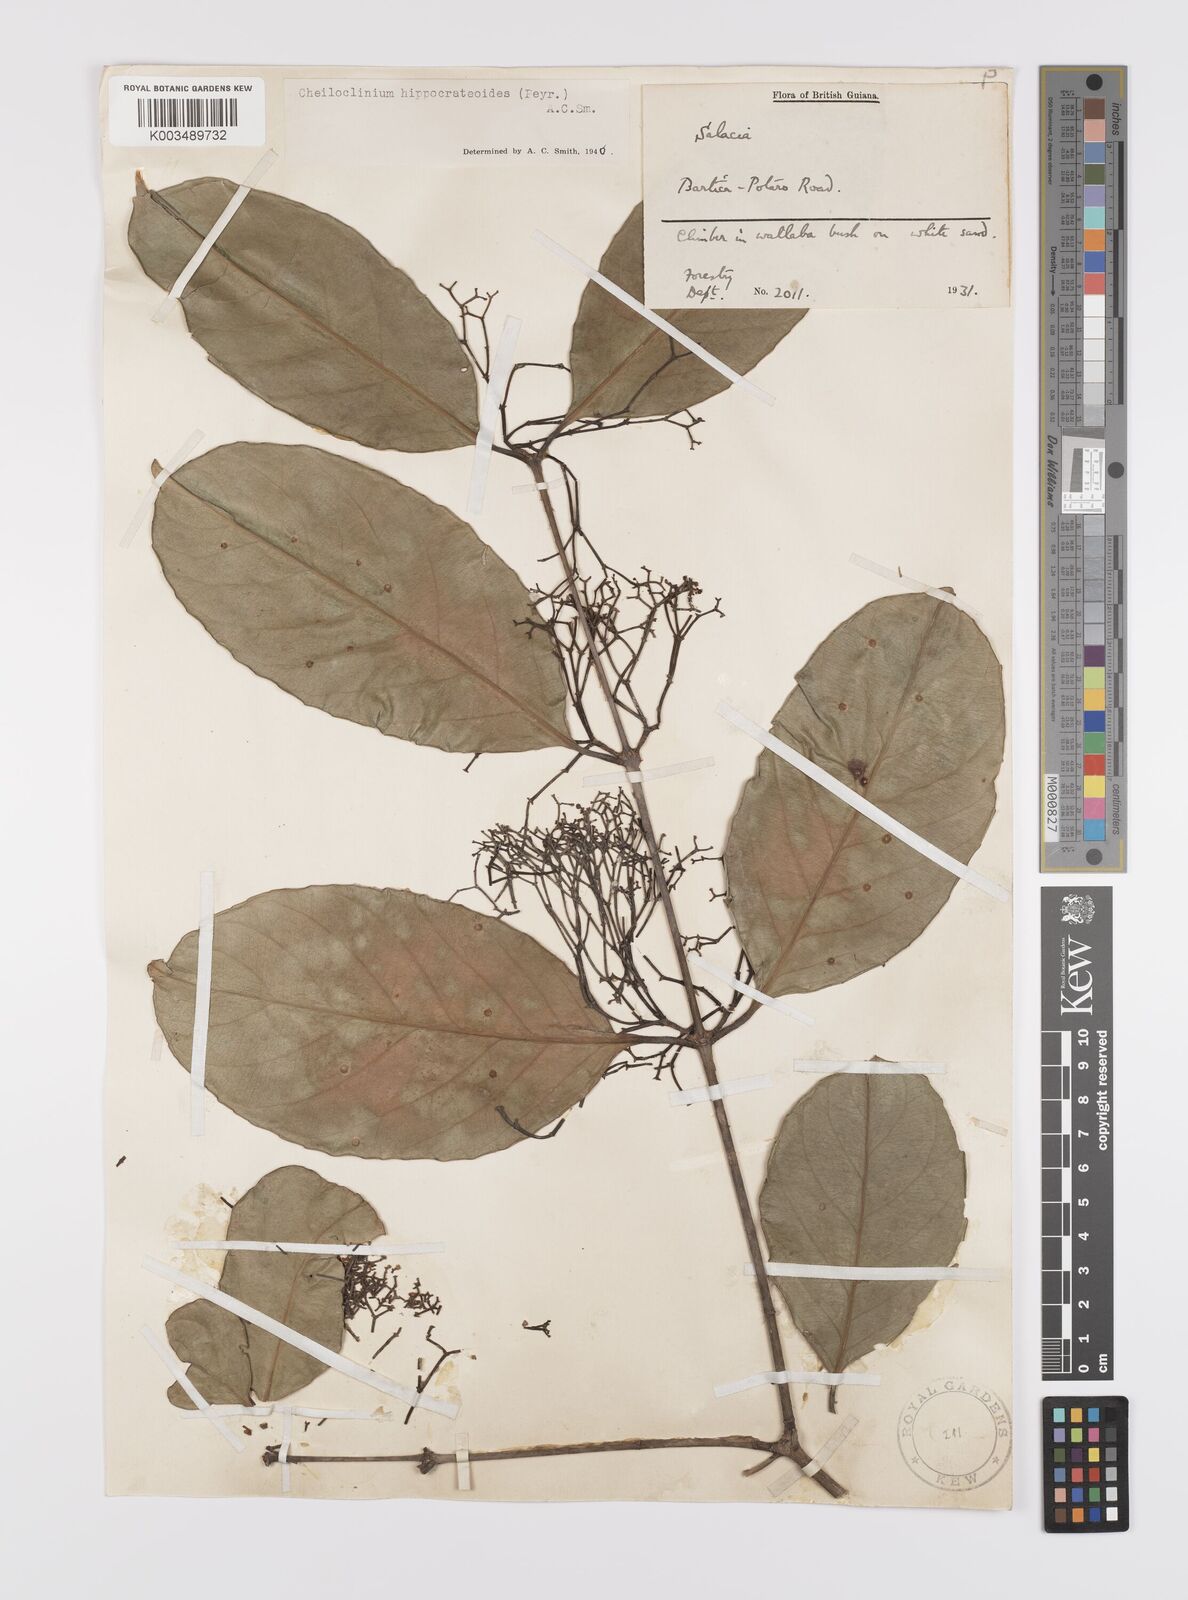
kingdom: Plantae
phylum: Tracheophyta
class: Magnoliopsida
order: Celastrales
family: Celastraceae
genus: Cheiloclinium
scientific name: Cheiloclinium hippocrateoides
